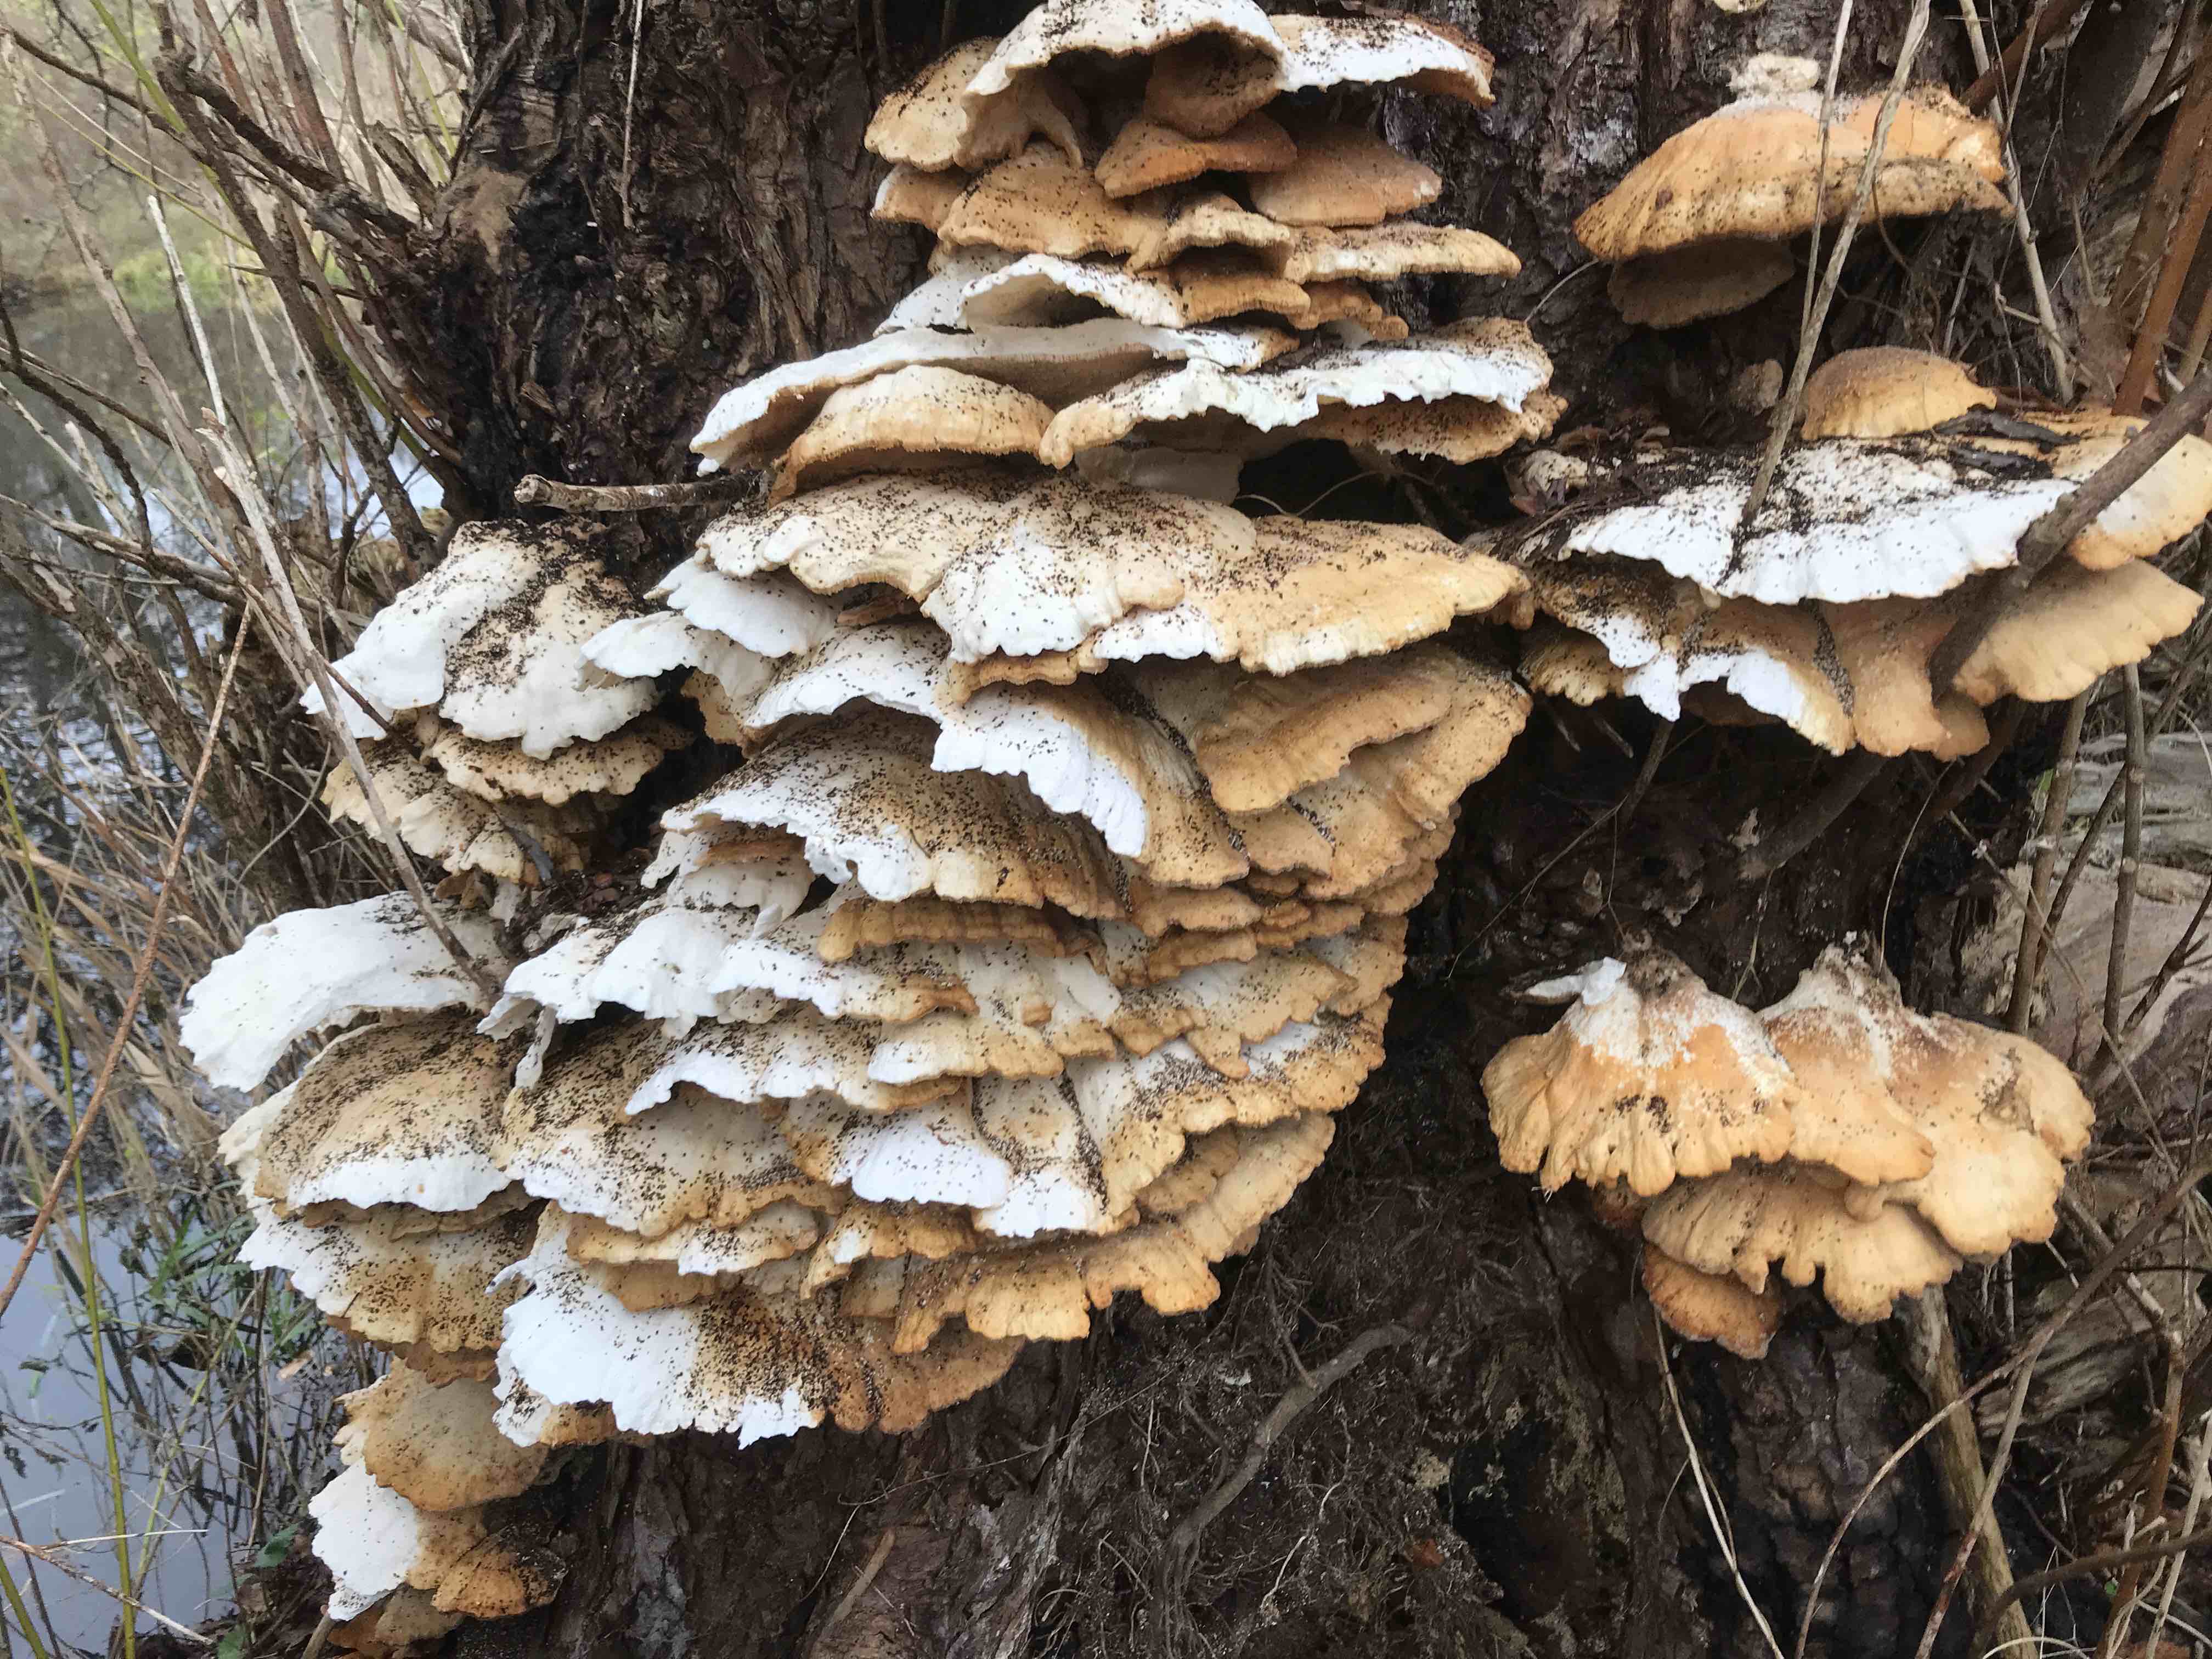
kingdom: Fungi
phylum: Basidiomycota
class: Agaricomycetes
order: Polyporales
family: Laetiporaceae
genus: Laetiporus
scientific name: Laetiporus sulphureus
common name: svovlporesvamp
